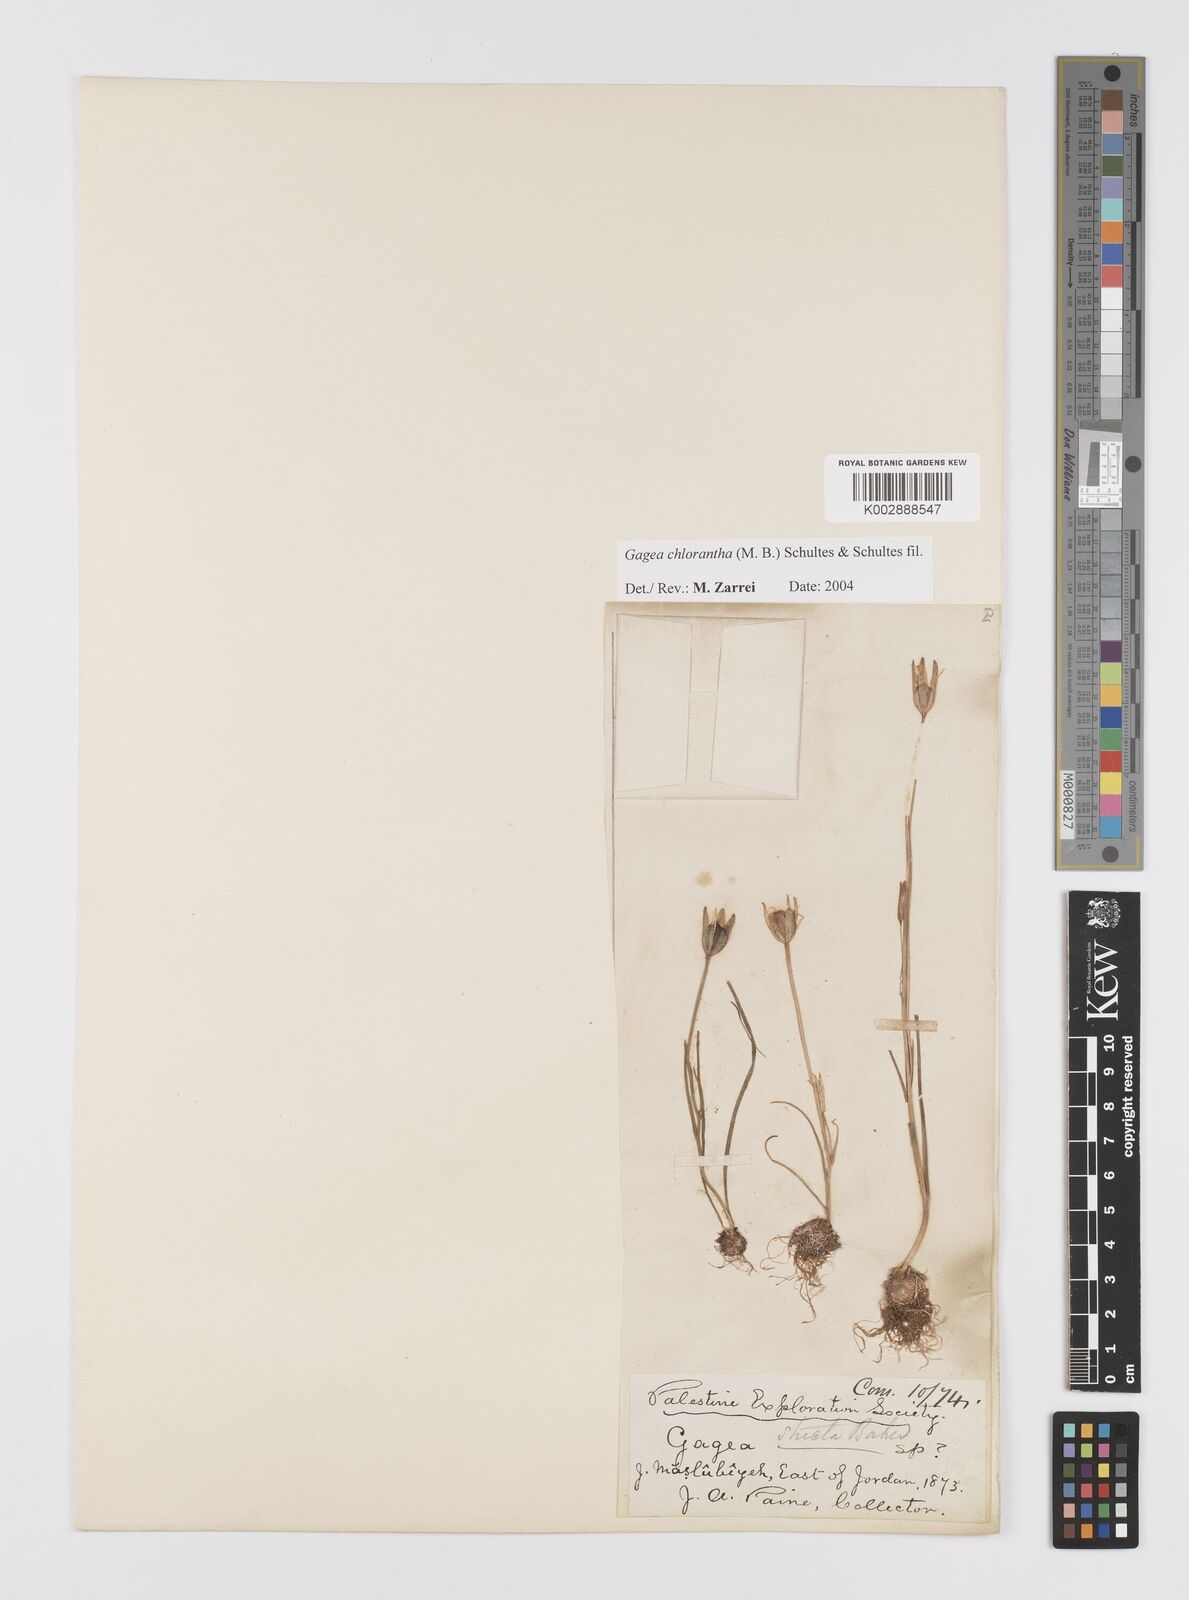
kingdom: Plantae
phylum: Tracheophyta
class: Liliopsida
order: Liliales
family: Liliaceae
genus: Gagea
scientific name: Gagea chlorantha
